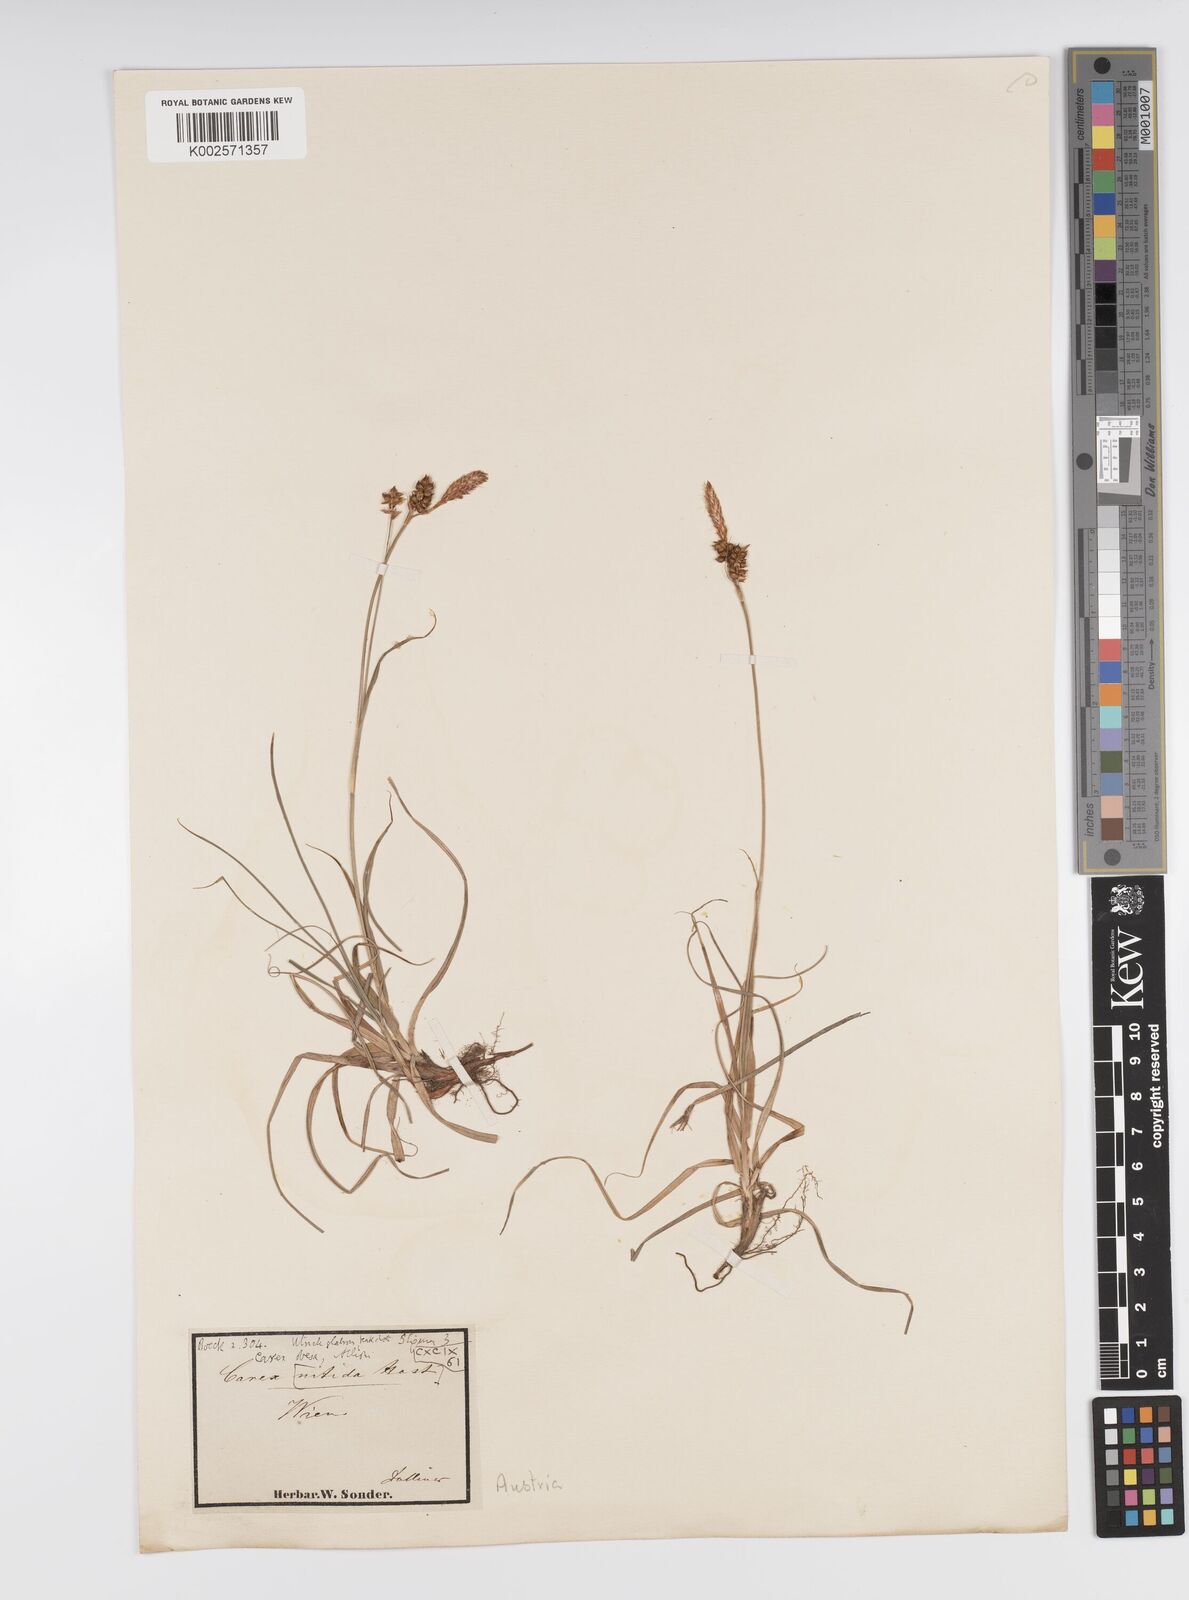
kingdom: Plantae
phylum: Tracheophyta
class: Liliopsida
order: Poales
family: Cyperaceae
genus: Carex
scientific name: Carex liparocarpos
